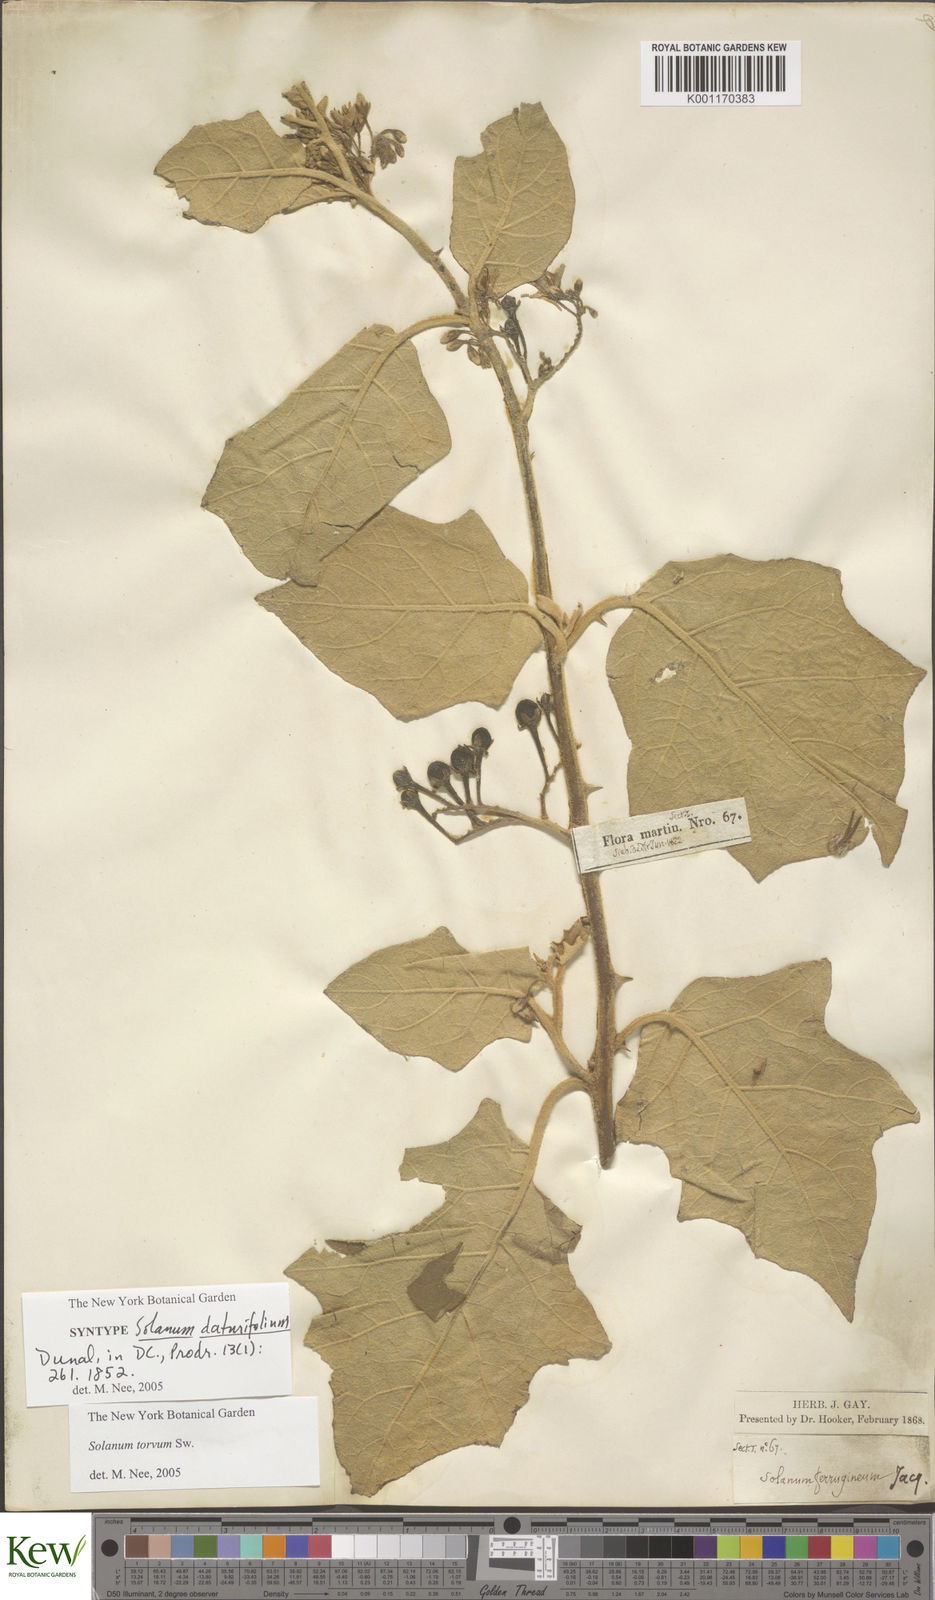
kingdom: Plantae
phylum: Tracheophyta
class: Magnoliopsida
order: Solanales
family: Solanaceae
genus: Solanum
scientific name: Solanum torvum
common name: Turkey berry
